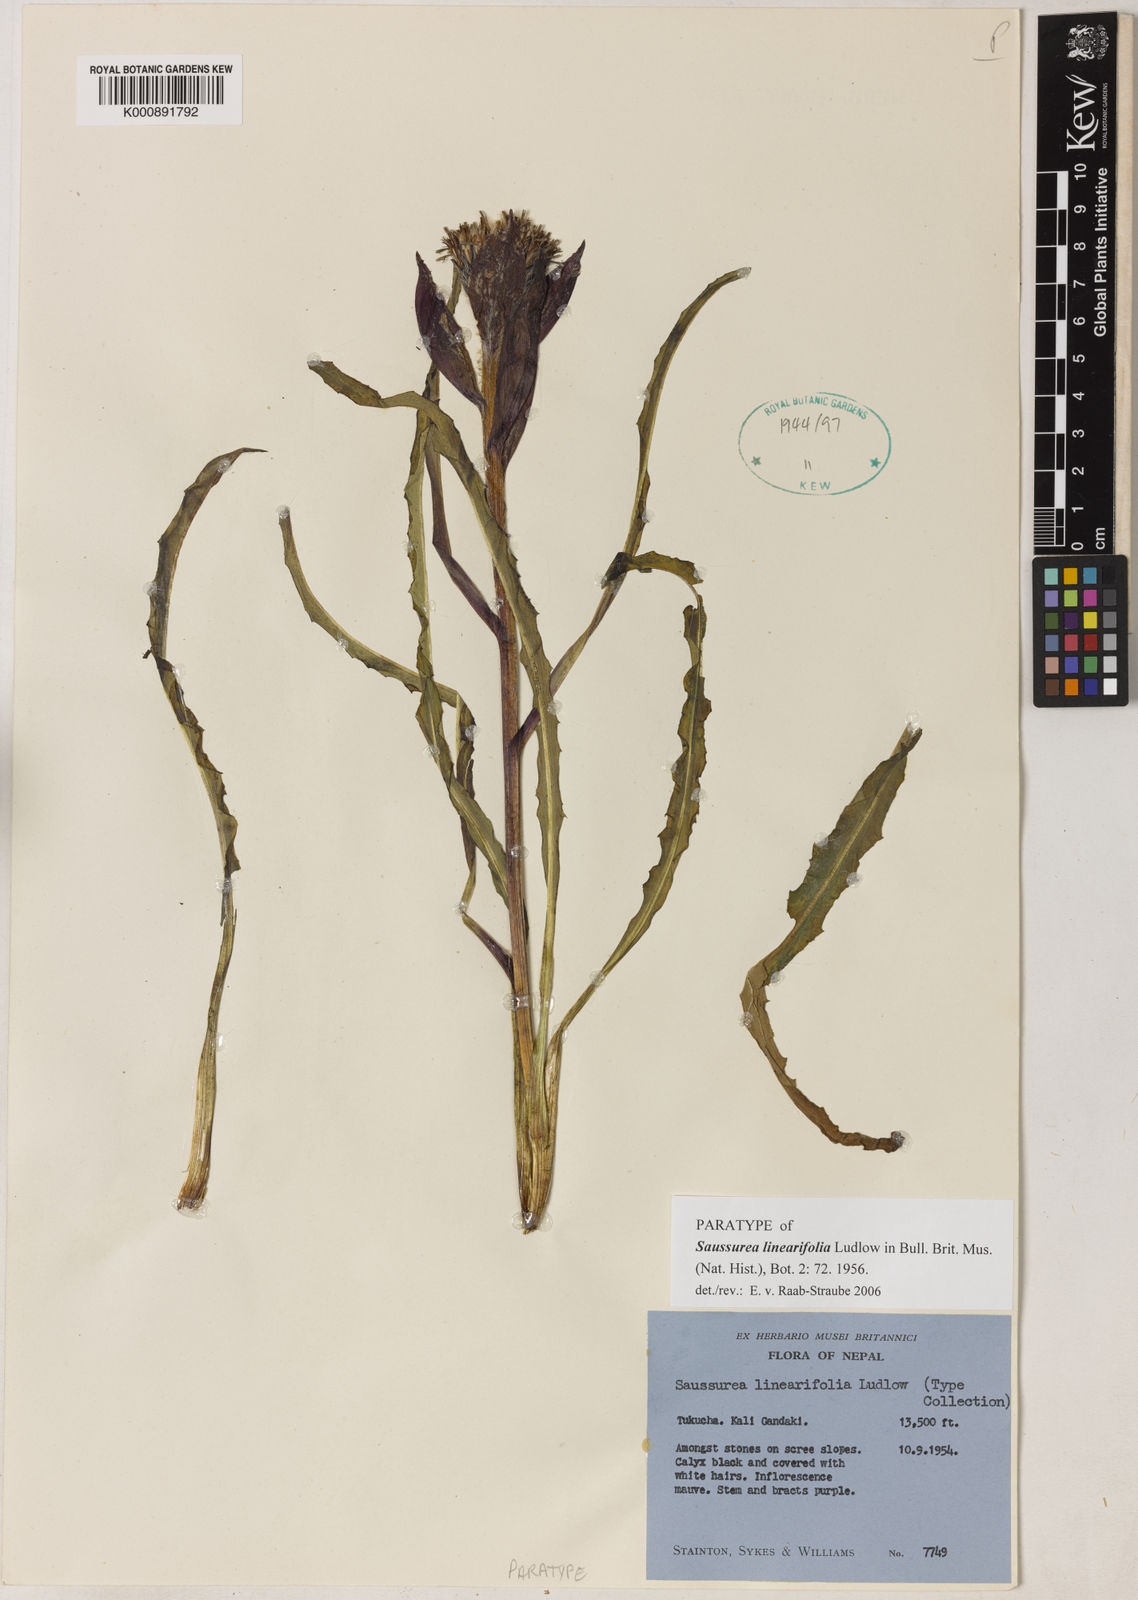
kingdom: Plantae
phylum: Tracheophyta
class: Magnoliopsida
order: Asterales
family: Asteraceae
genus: Saussurea
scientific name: Saussurea linearifolia
